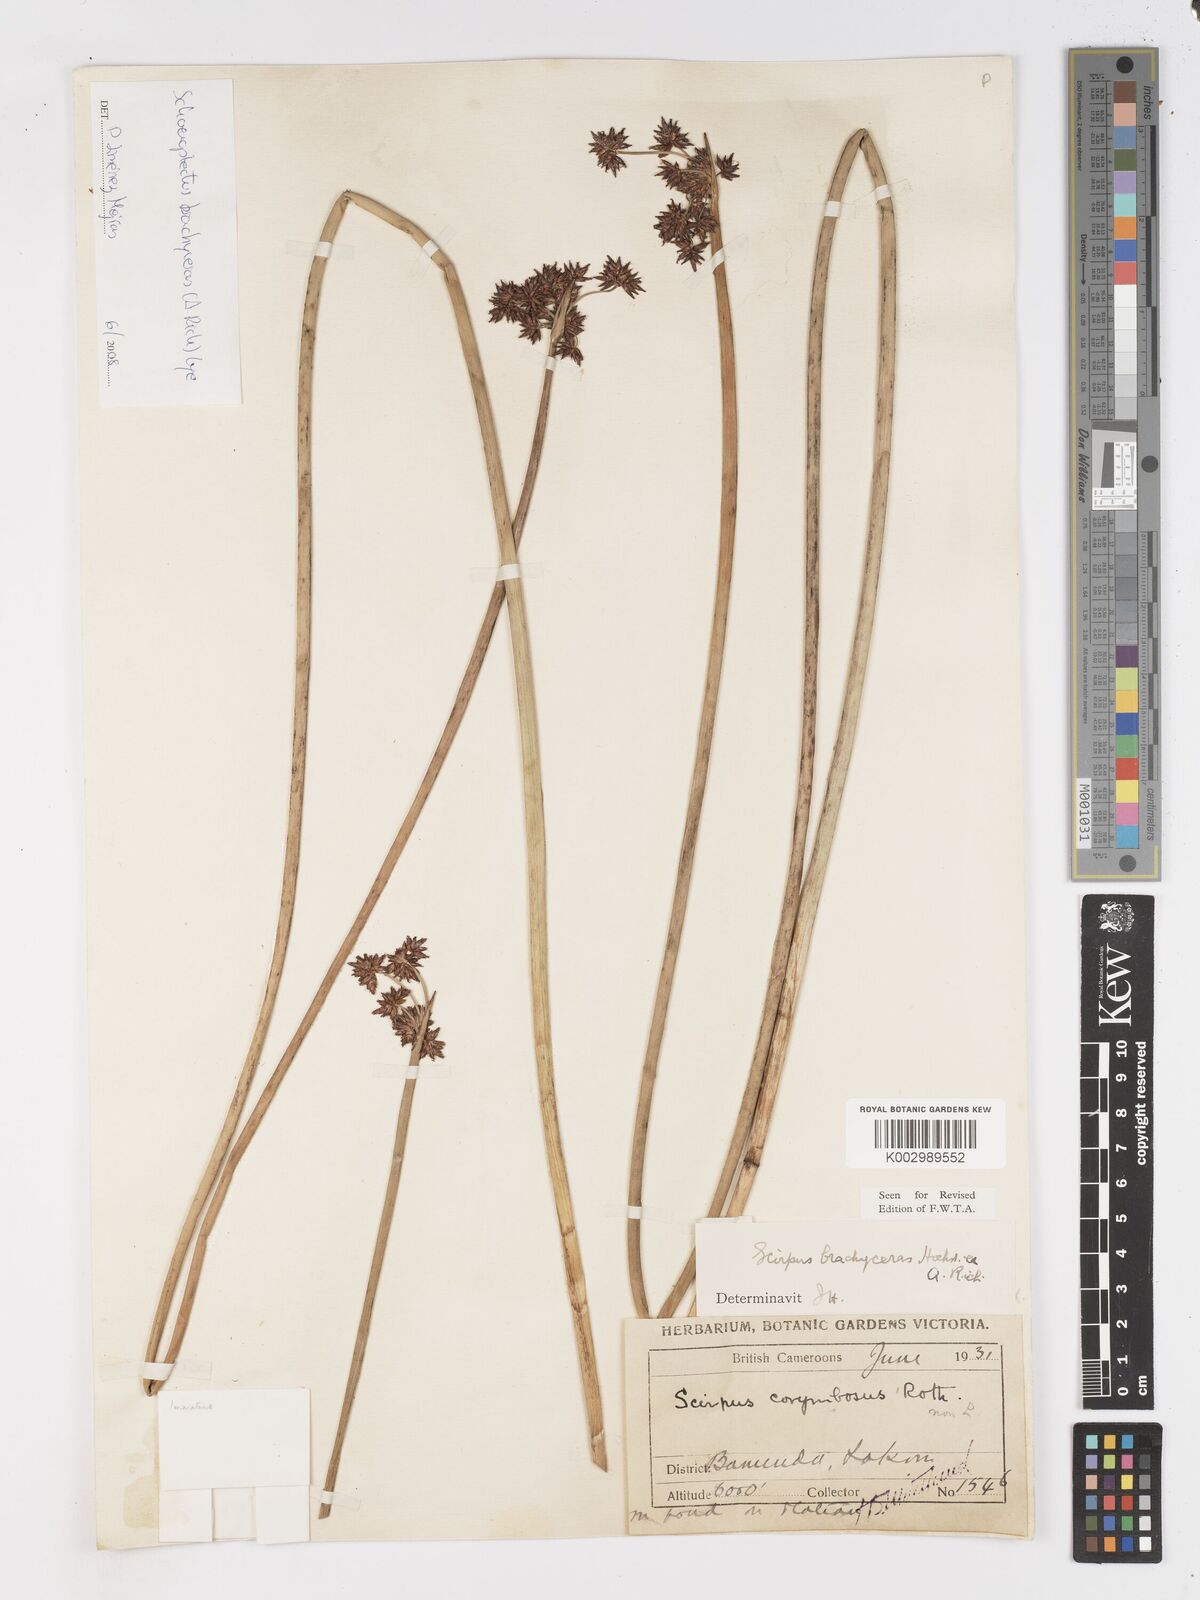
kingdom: Plantae
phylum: Tracheophyta
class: Liliopsida
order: Poales
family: Cyperaceae
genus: Schoenoplectiella
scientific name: Schoenoplectiella corymbosa
